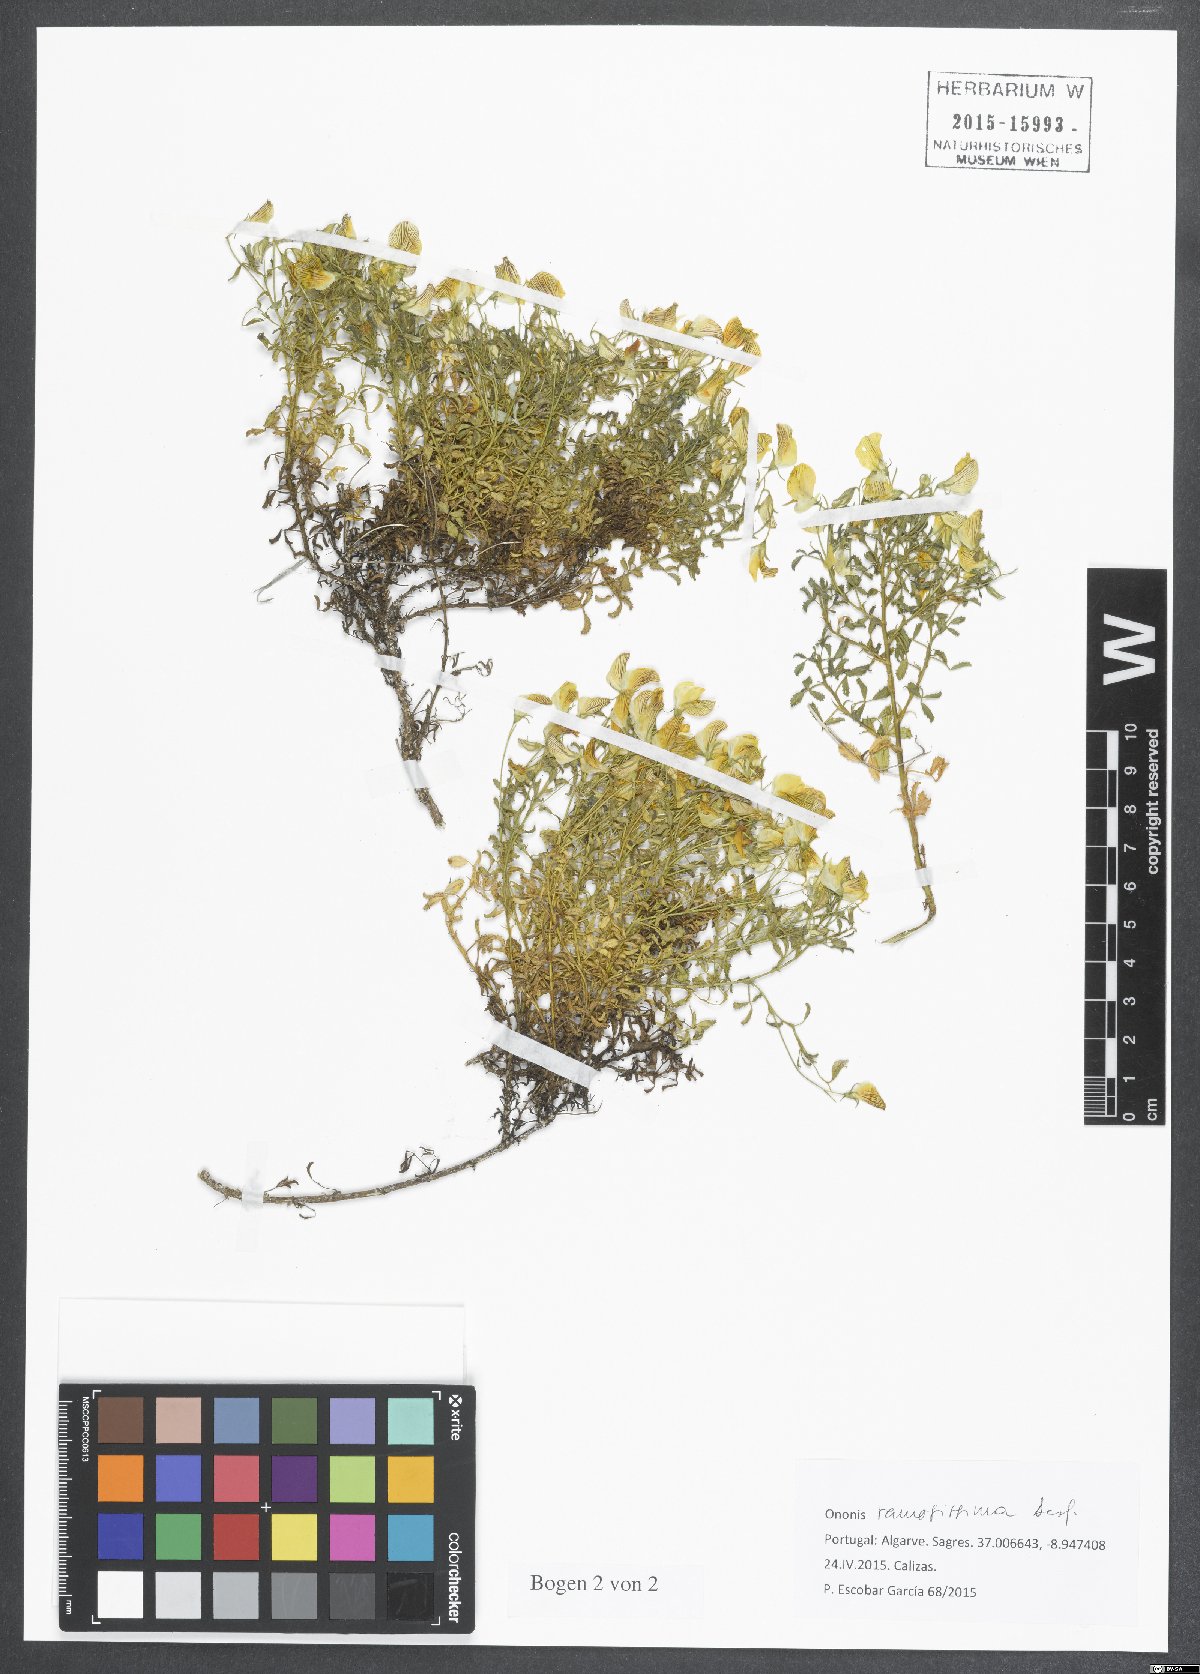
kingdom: Plantae
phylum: Tracheophyta
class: Magnoliopsida
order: Fabales
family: Fabaceae
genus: Ononis
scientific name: Ononis ramosissima
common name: Bush restharrow
